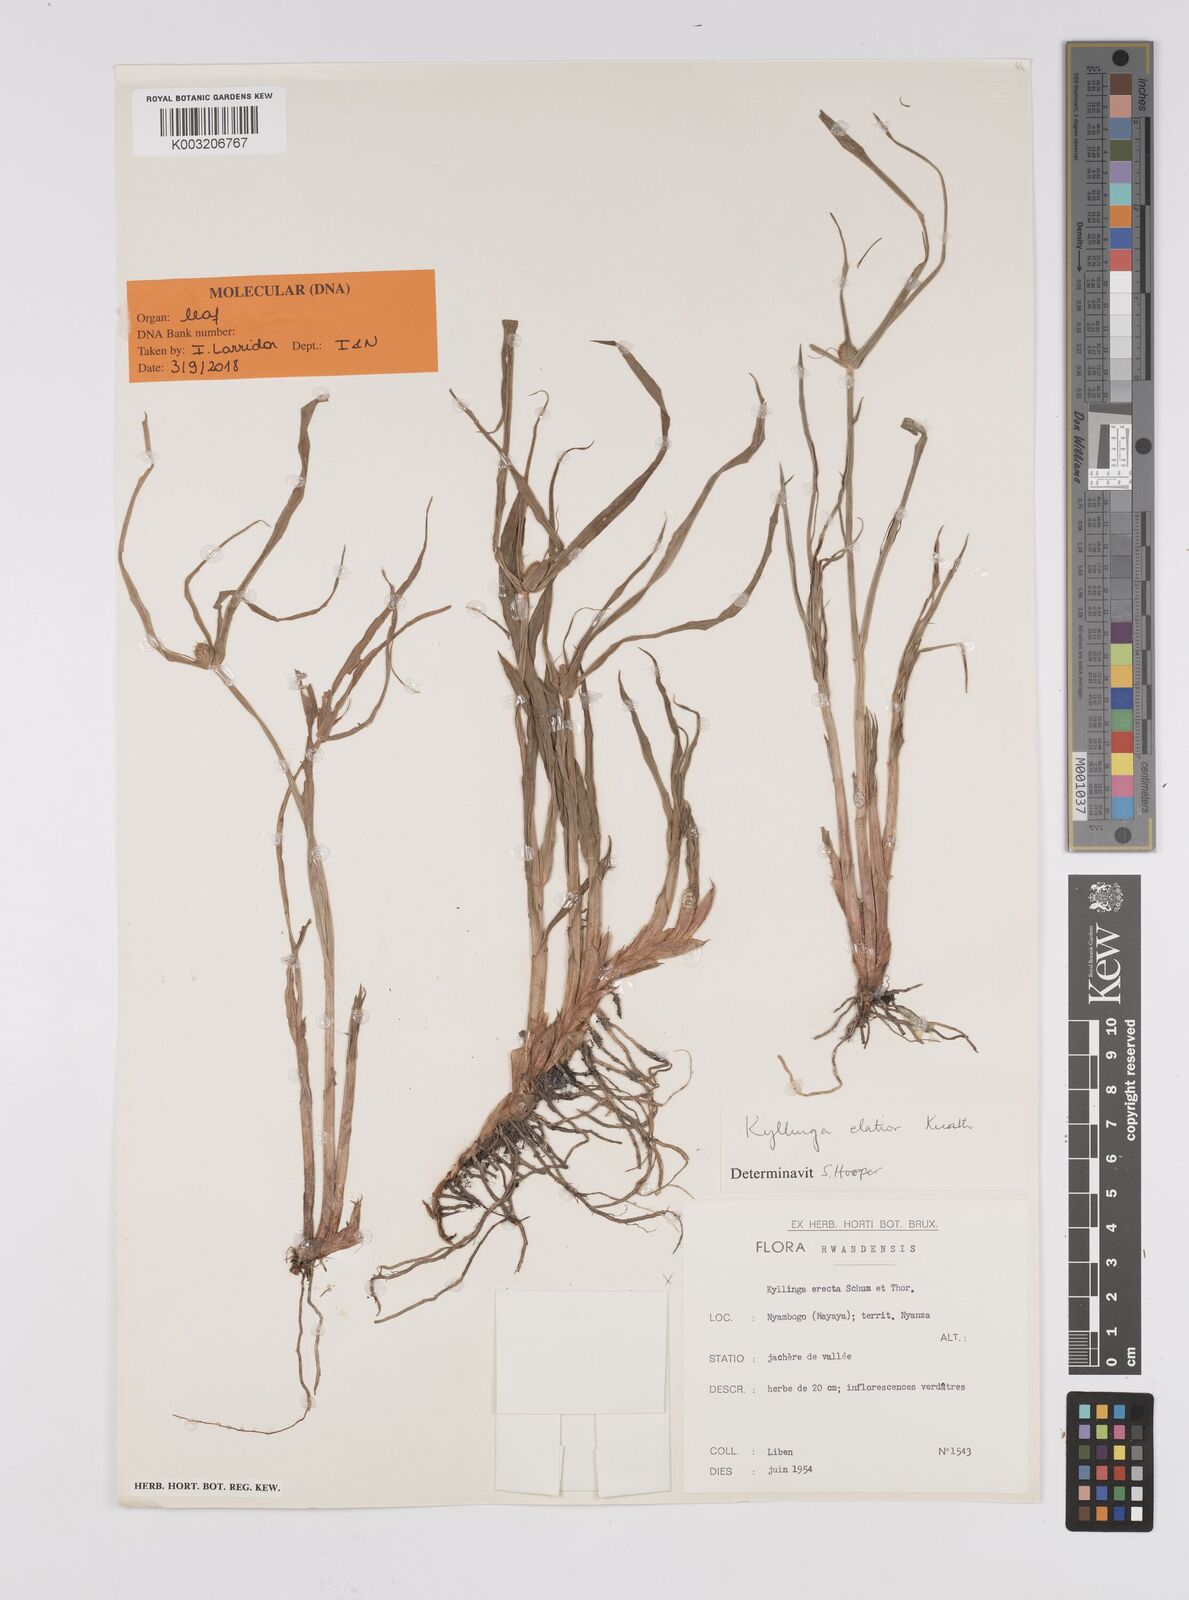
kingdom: Plantae
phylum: Tracheophyta
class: Liliopsida
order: Poales
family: Cyperaceae
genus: Cyperus
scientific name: Cyperus
